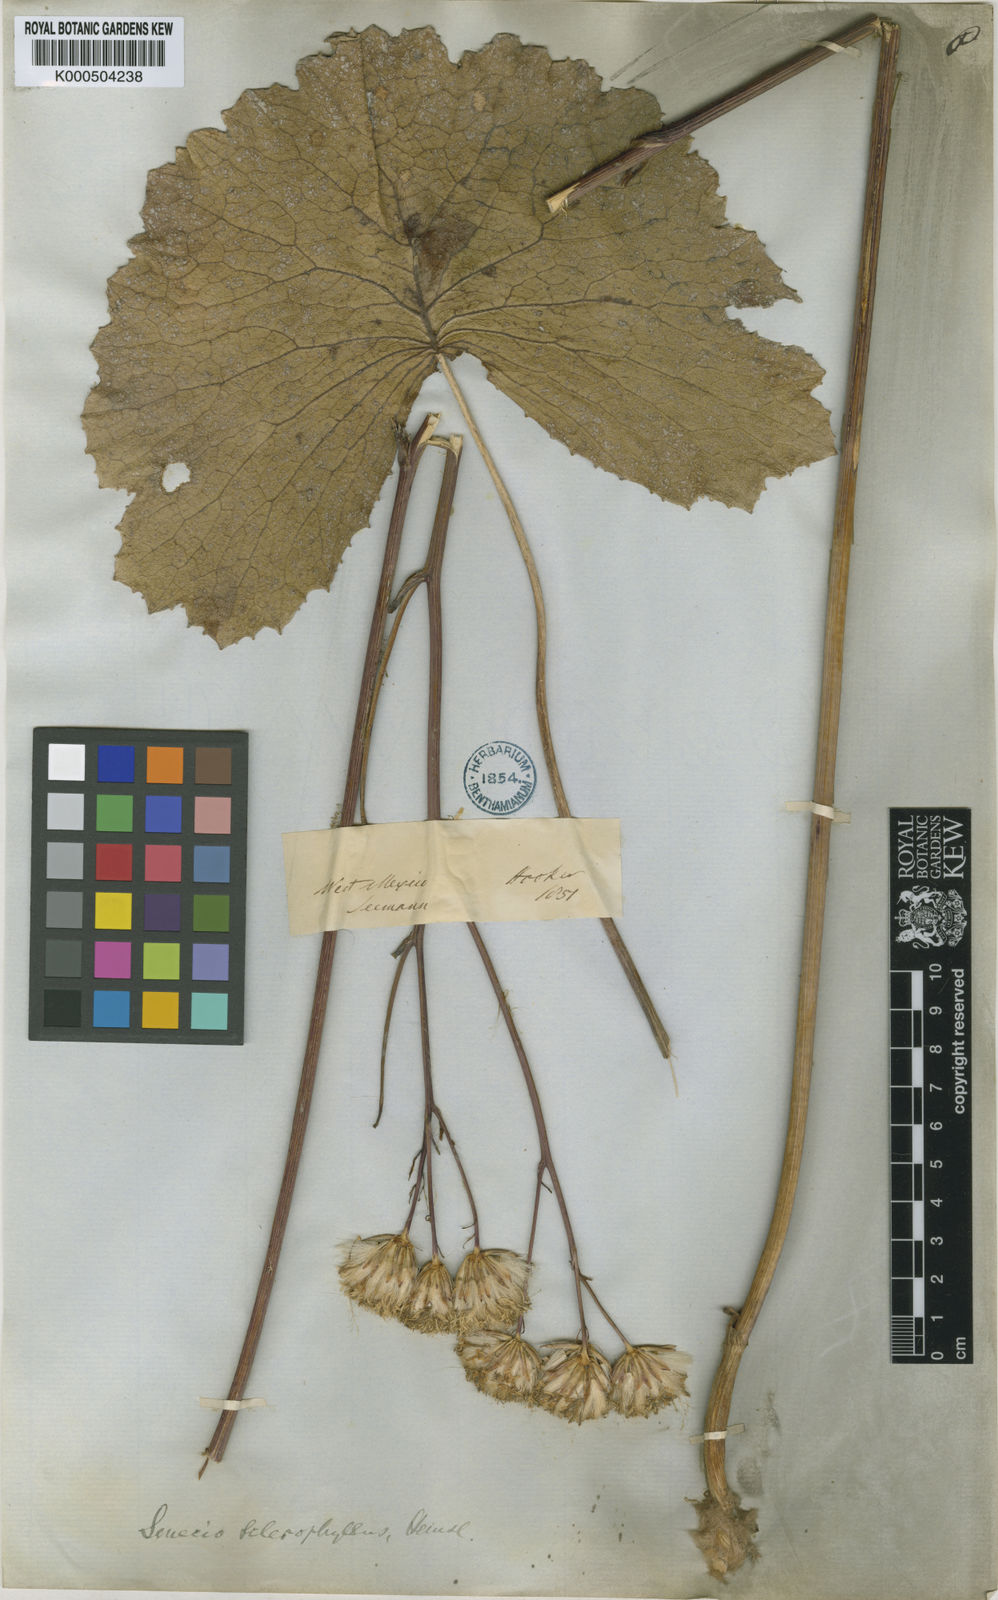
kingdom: Plantae
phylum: Tracheophyta
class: Magnoliopsida
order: Asterales
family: Asteraceae
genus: Psacalium
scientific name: Psacalium
